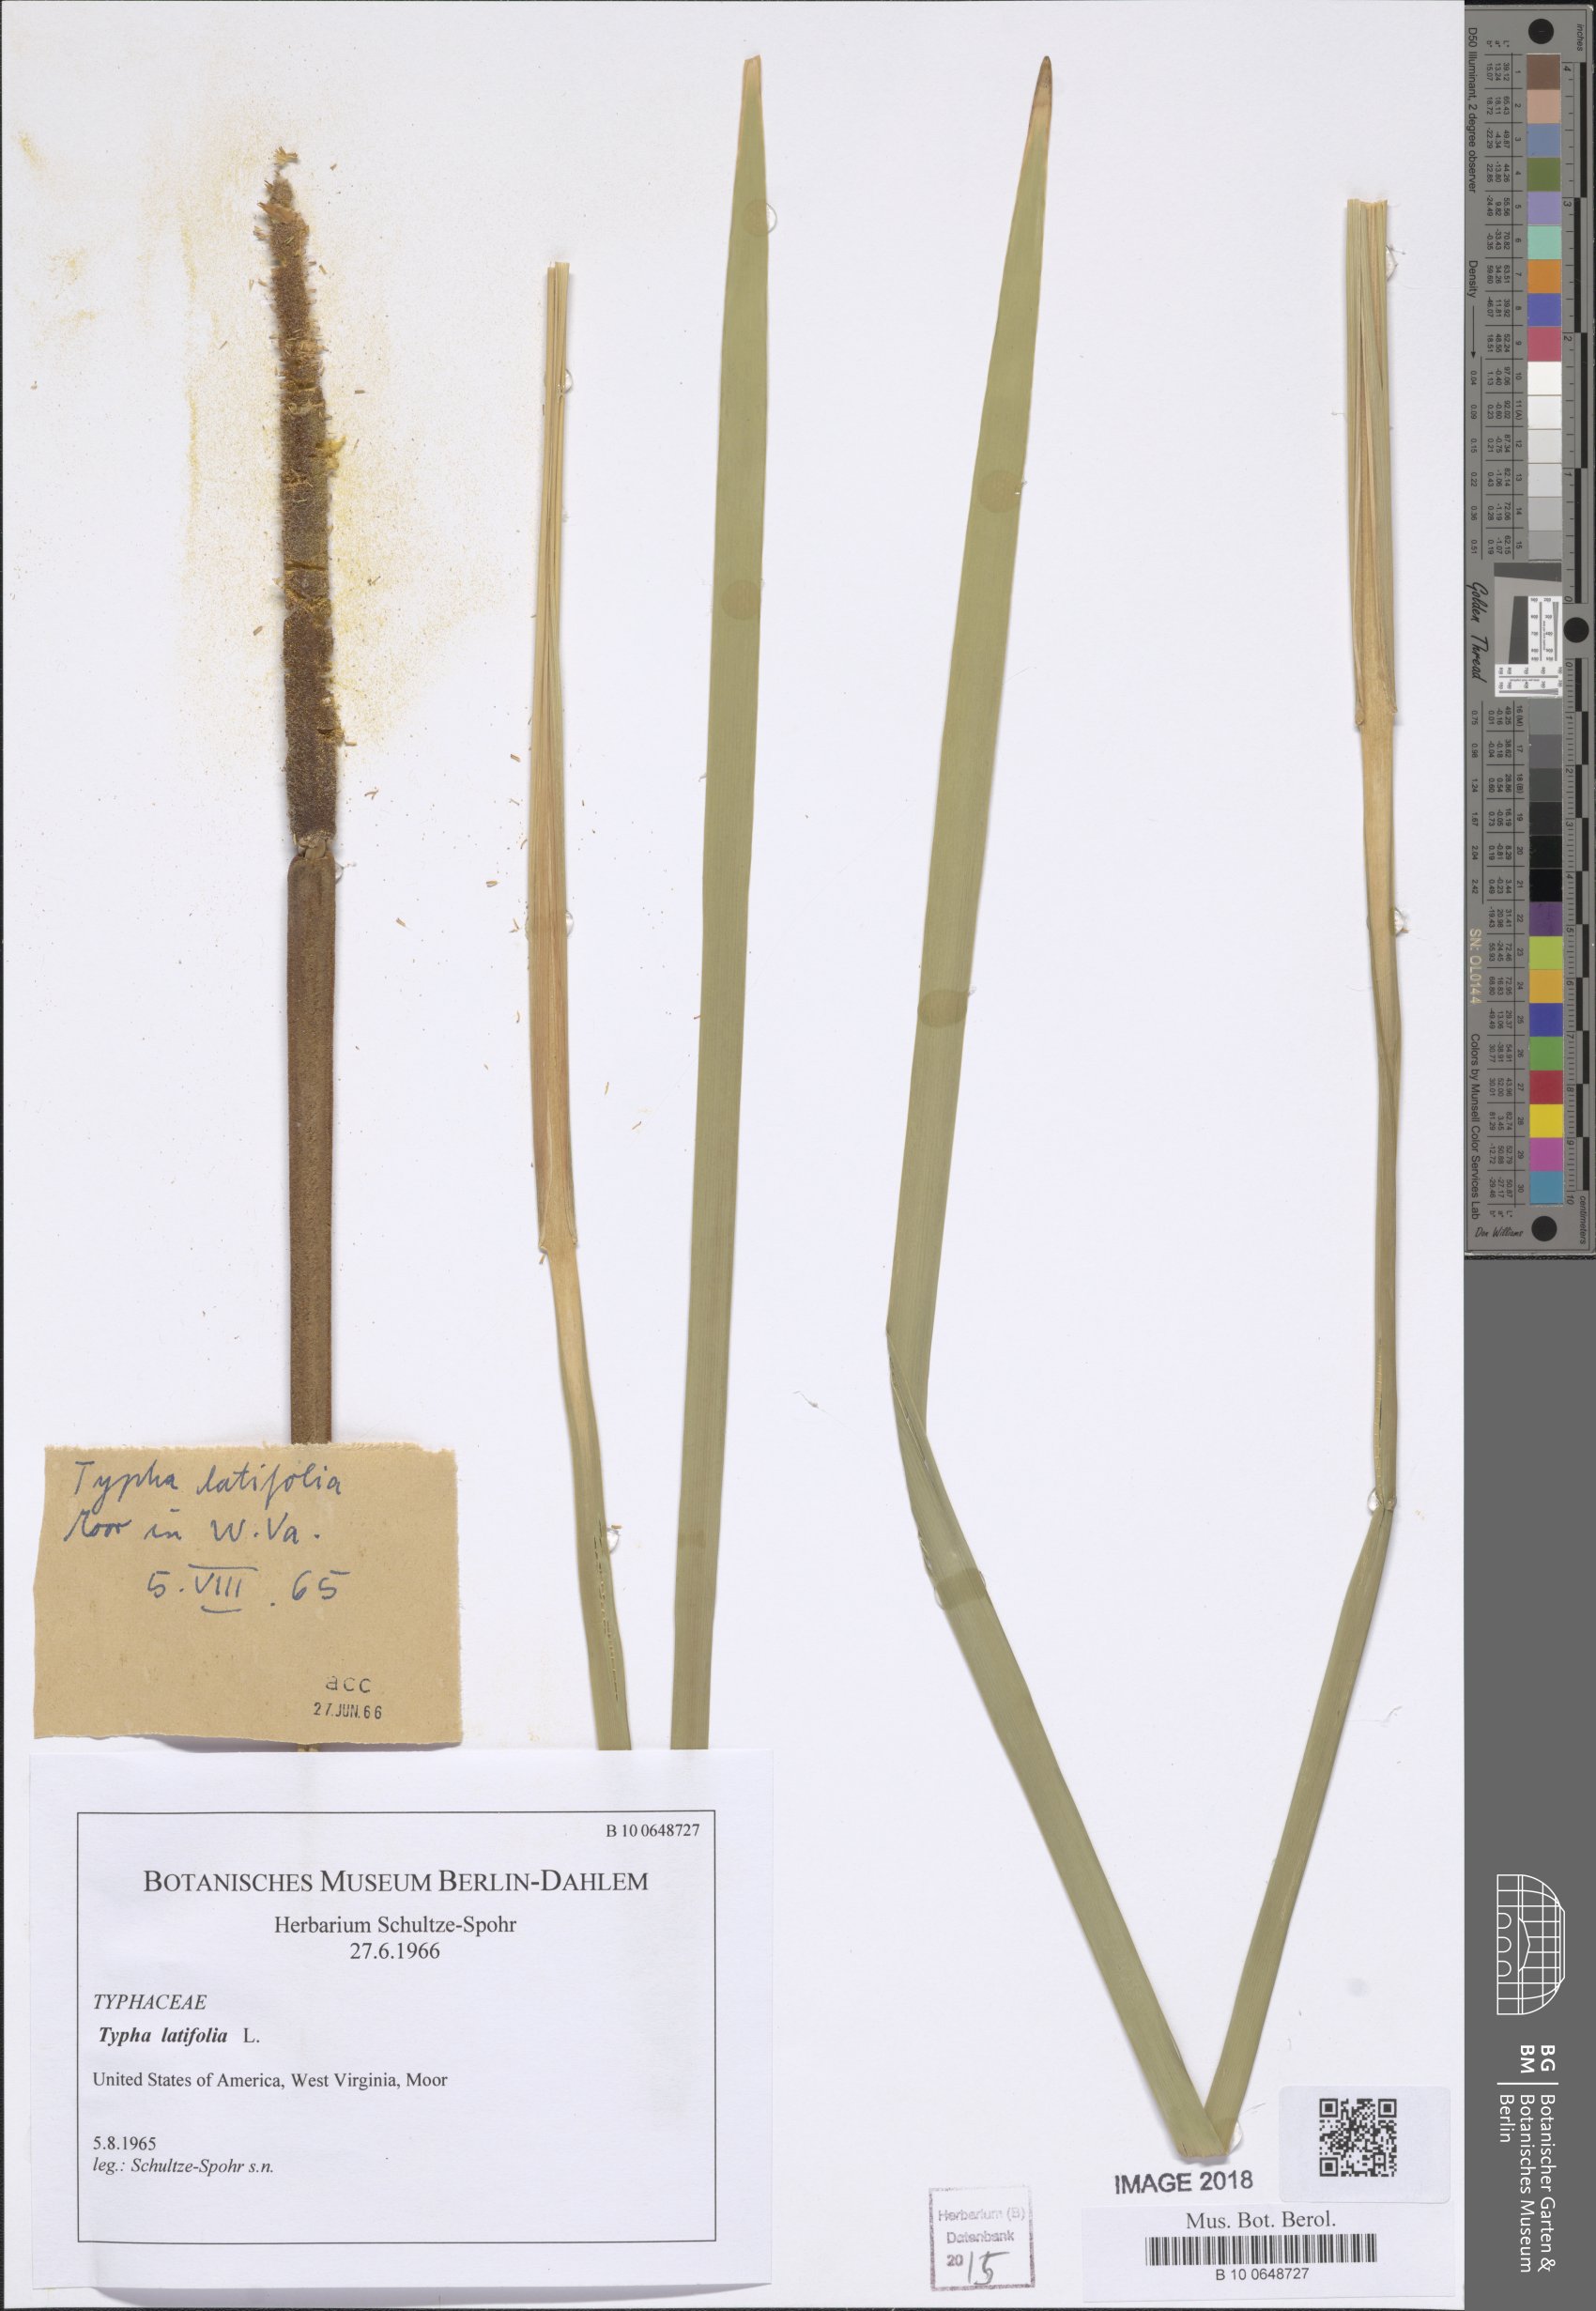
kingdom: Plantae
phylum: Tracheophyta
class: Liliopsida
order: Poales
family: Typhaceae
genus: Typha
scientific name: Typha latifolia
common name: Broadleaf cattail
